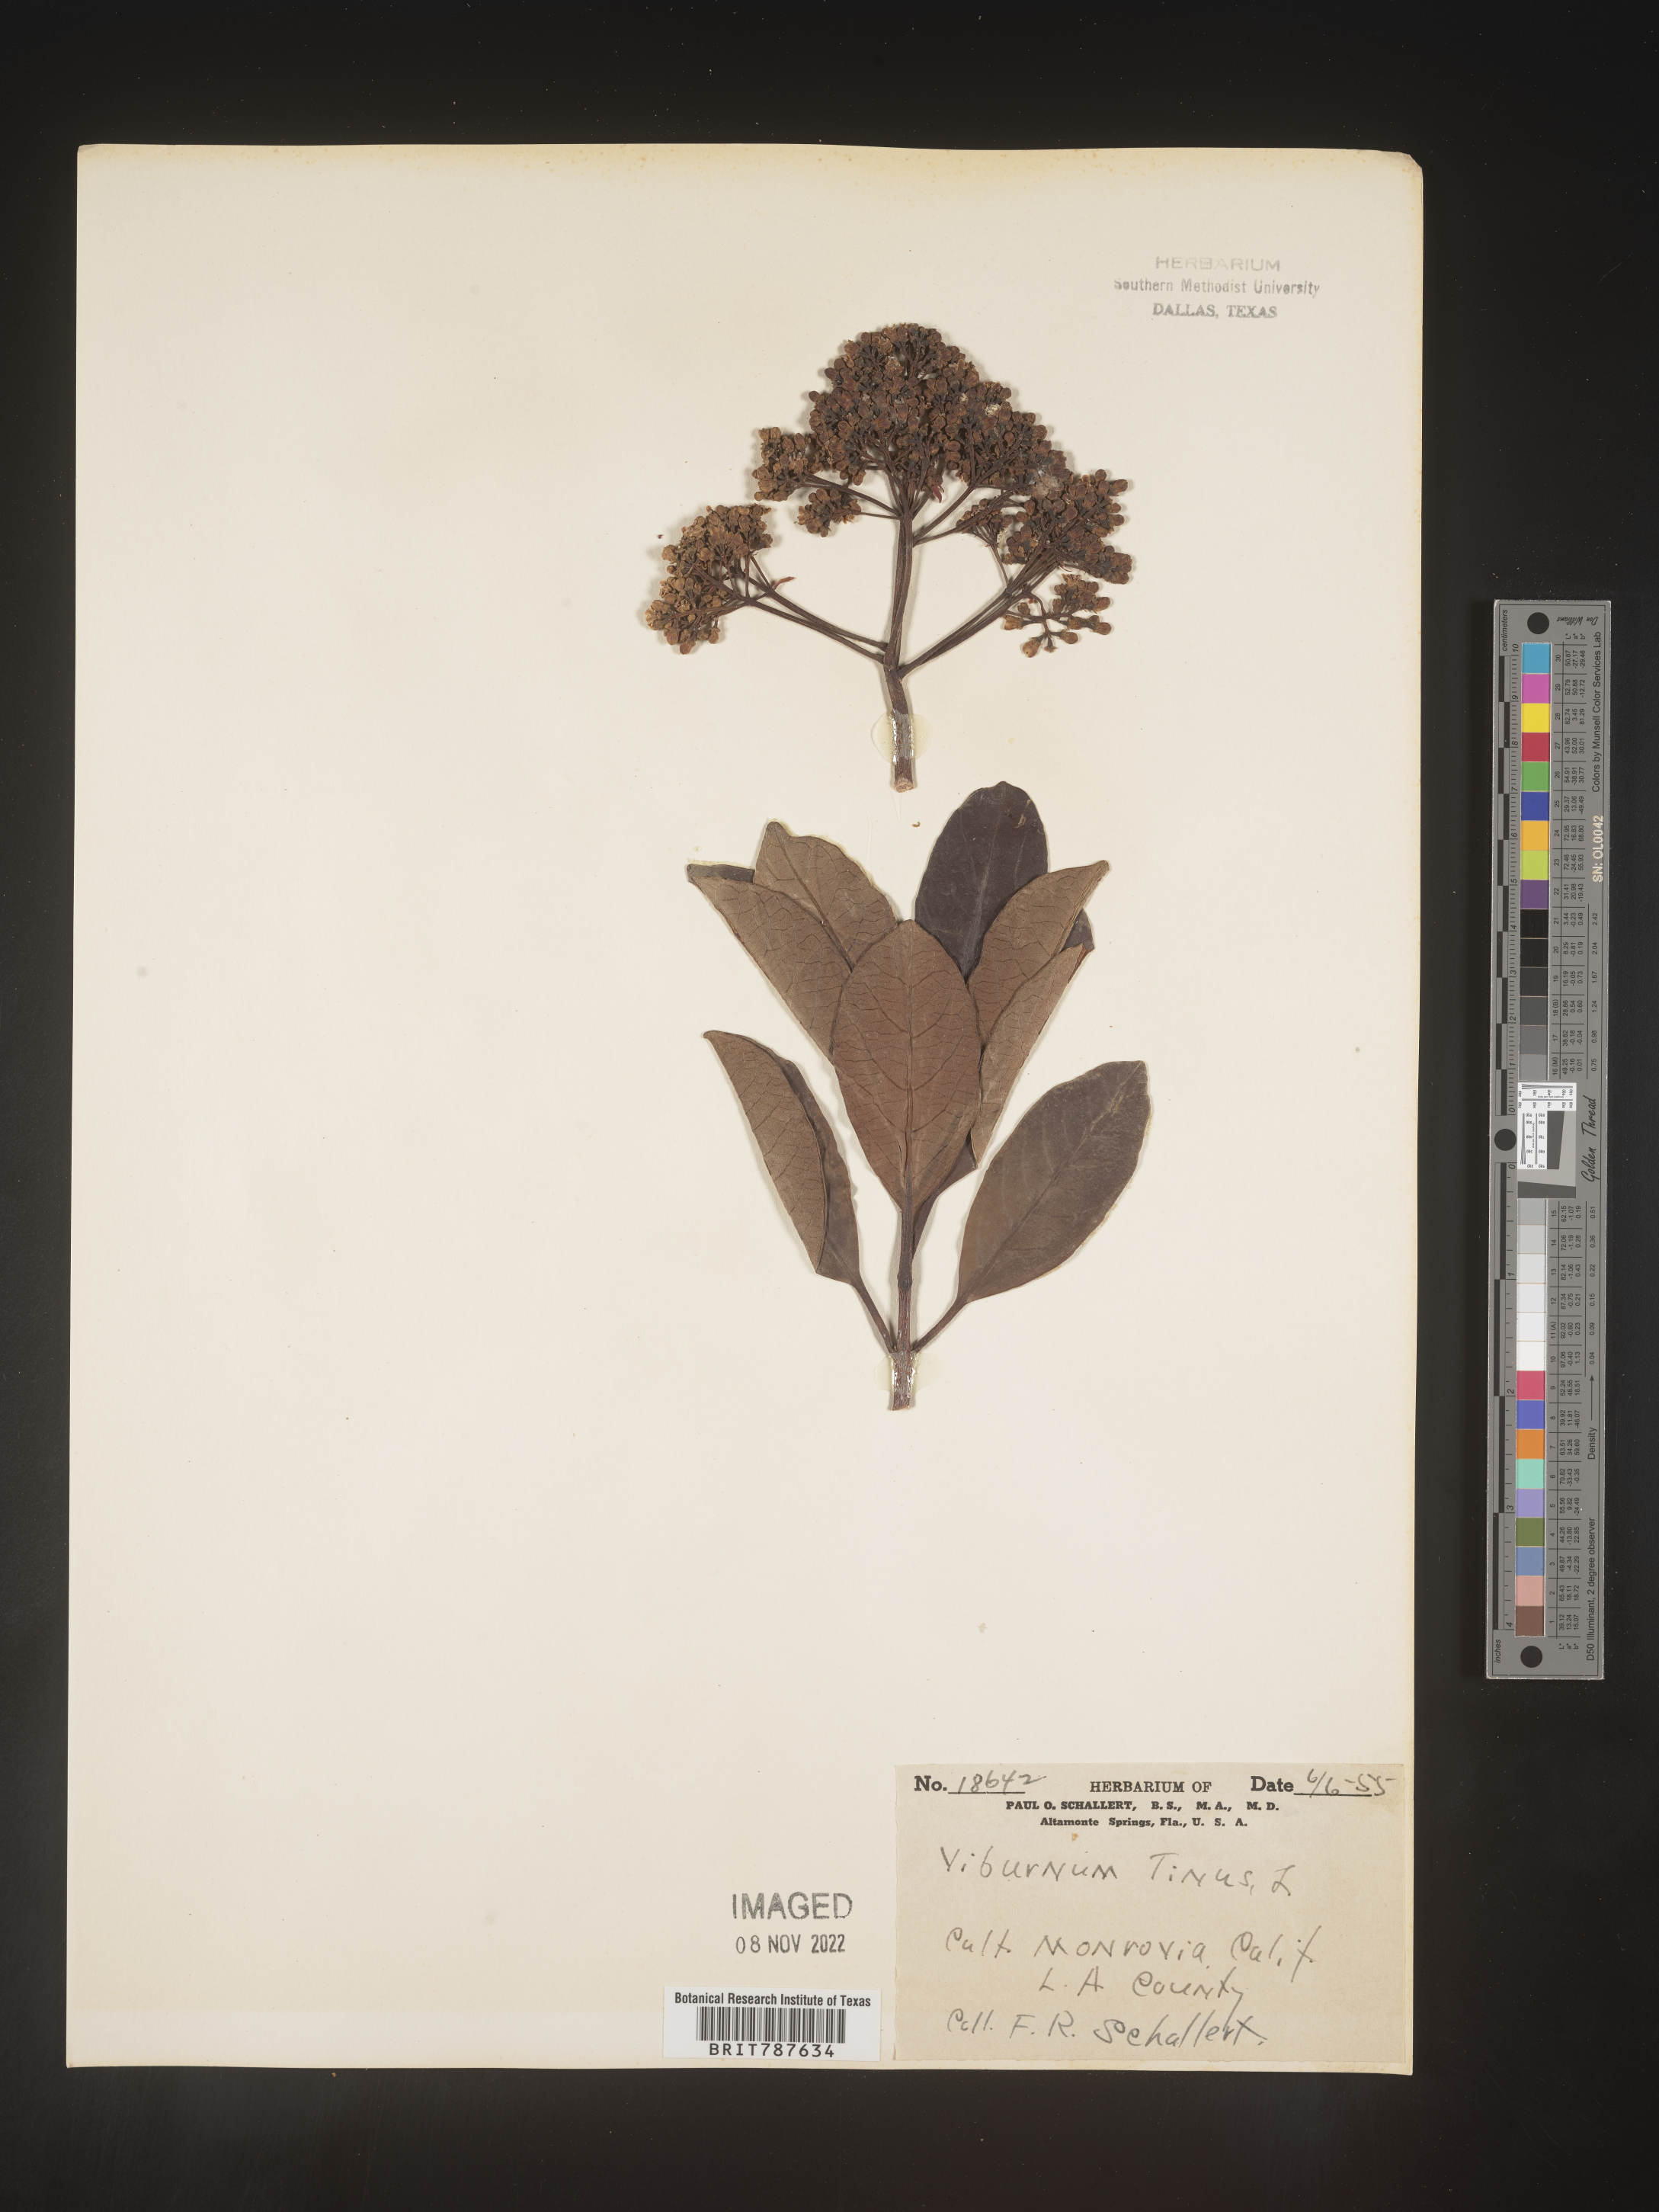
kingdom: Plantae
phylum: Tracheophyta
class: Magnoliopsida
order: Dipsacales
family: Viburnaceae
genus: Viburnum
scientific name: Viburnum
